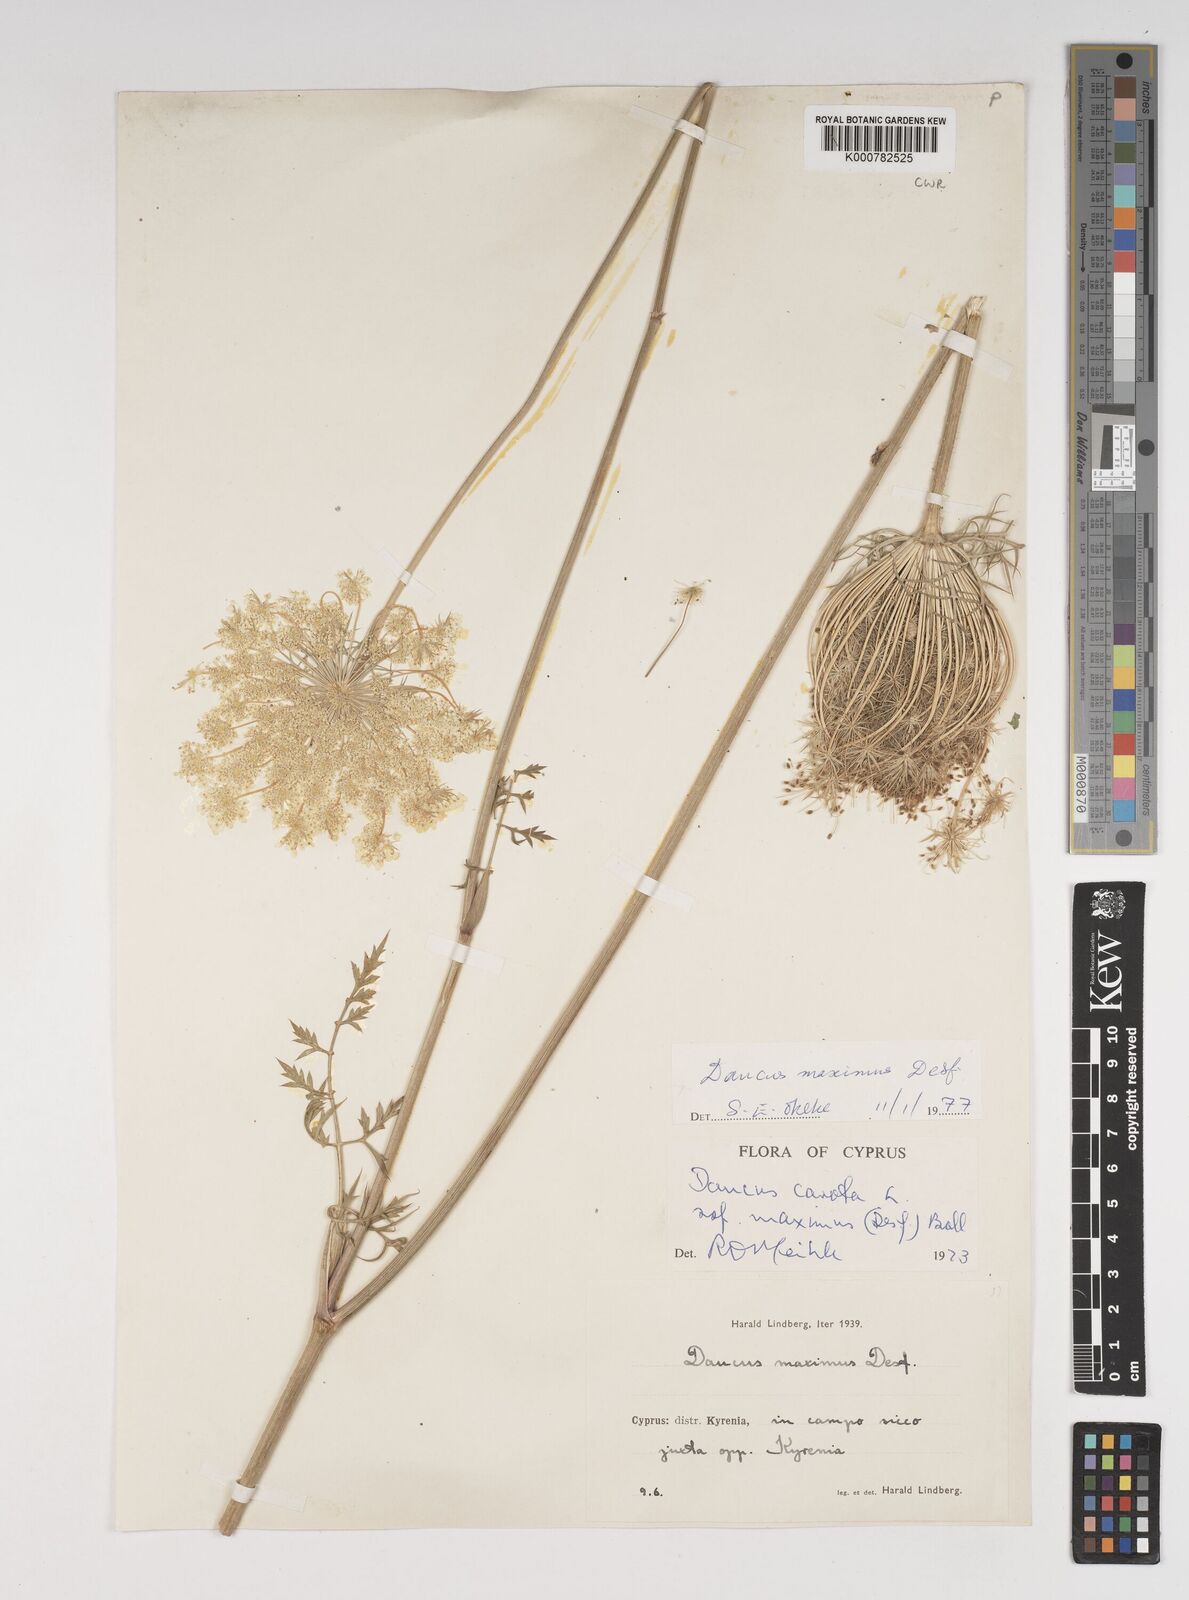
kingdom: Plantae
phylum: Tracheophyta
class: Magnoliopsida
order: Apiales
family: Apiaceae
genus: Daucus
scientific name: Daucus carota
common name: Wild carrot
